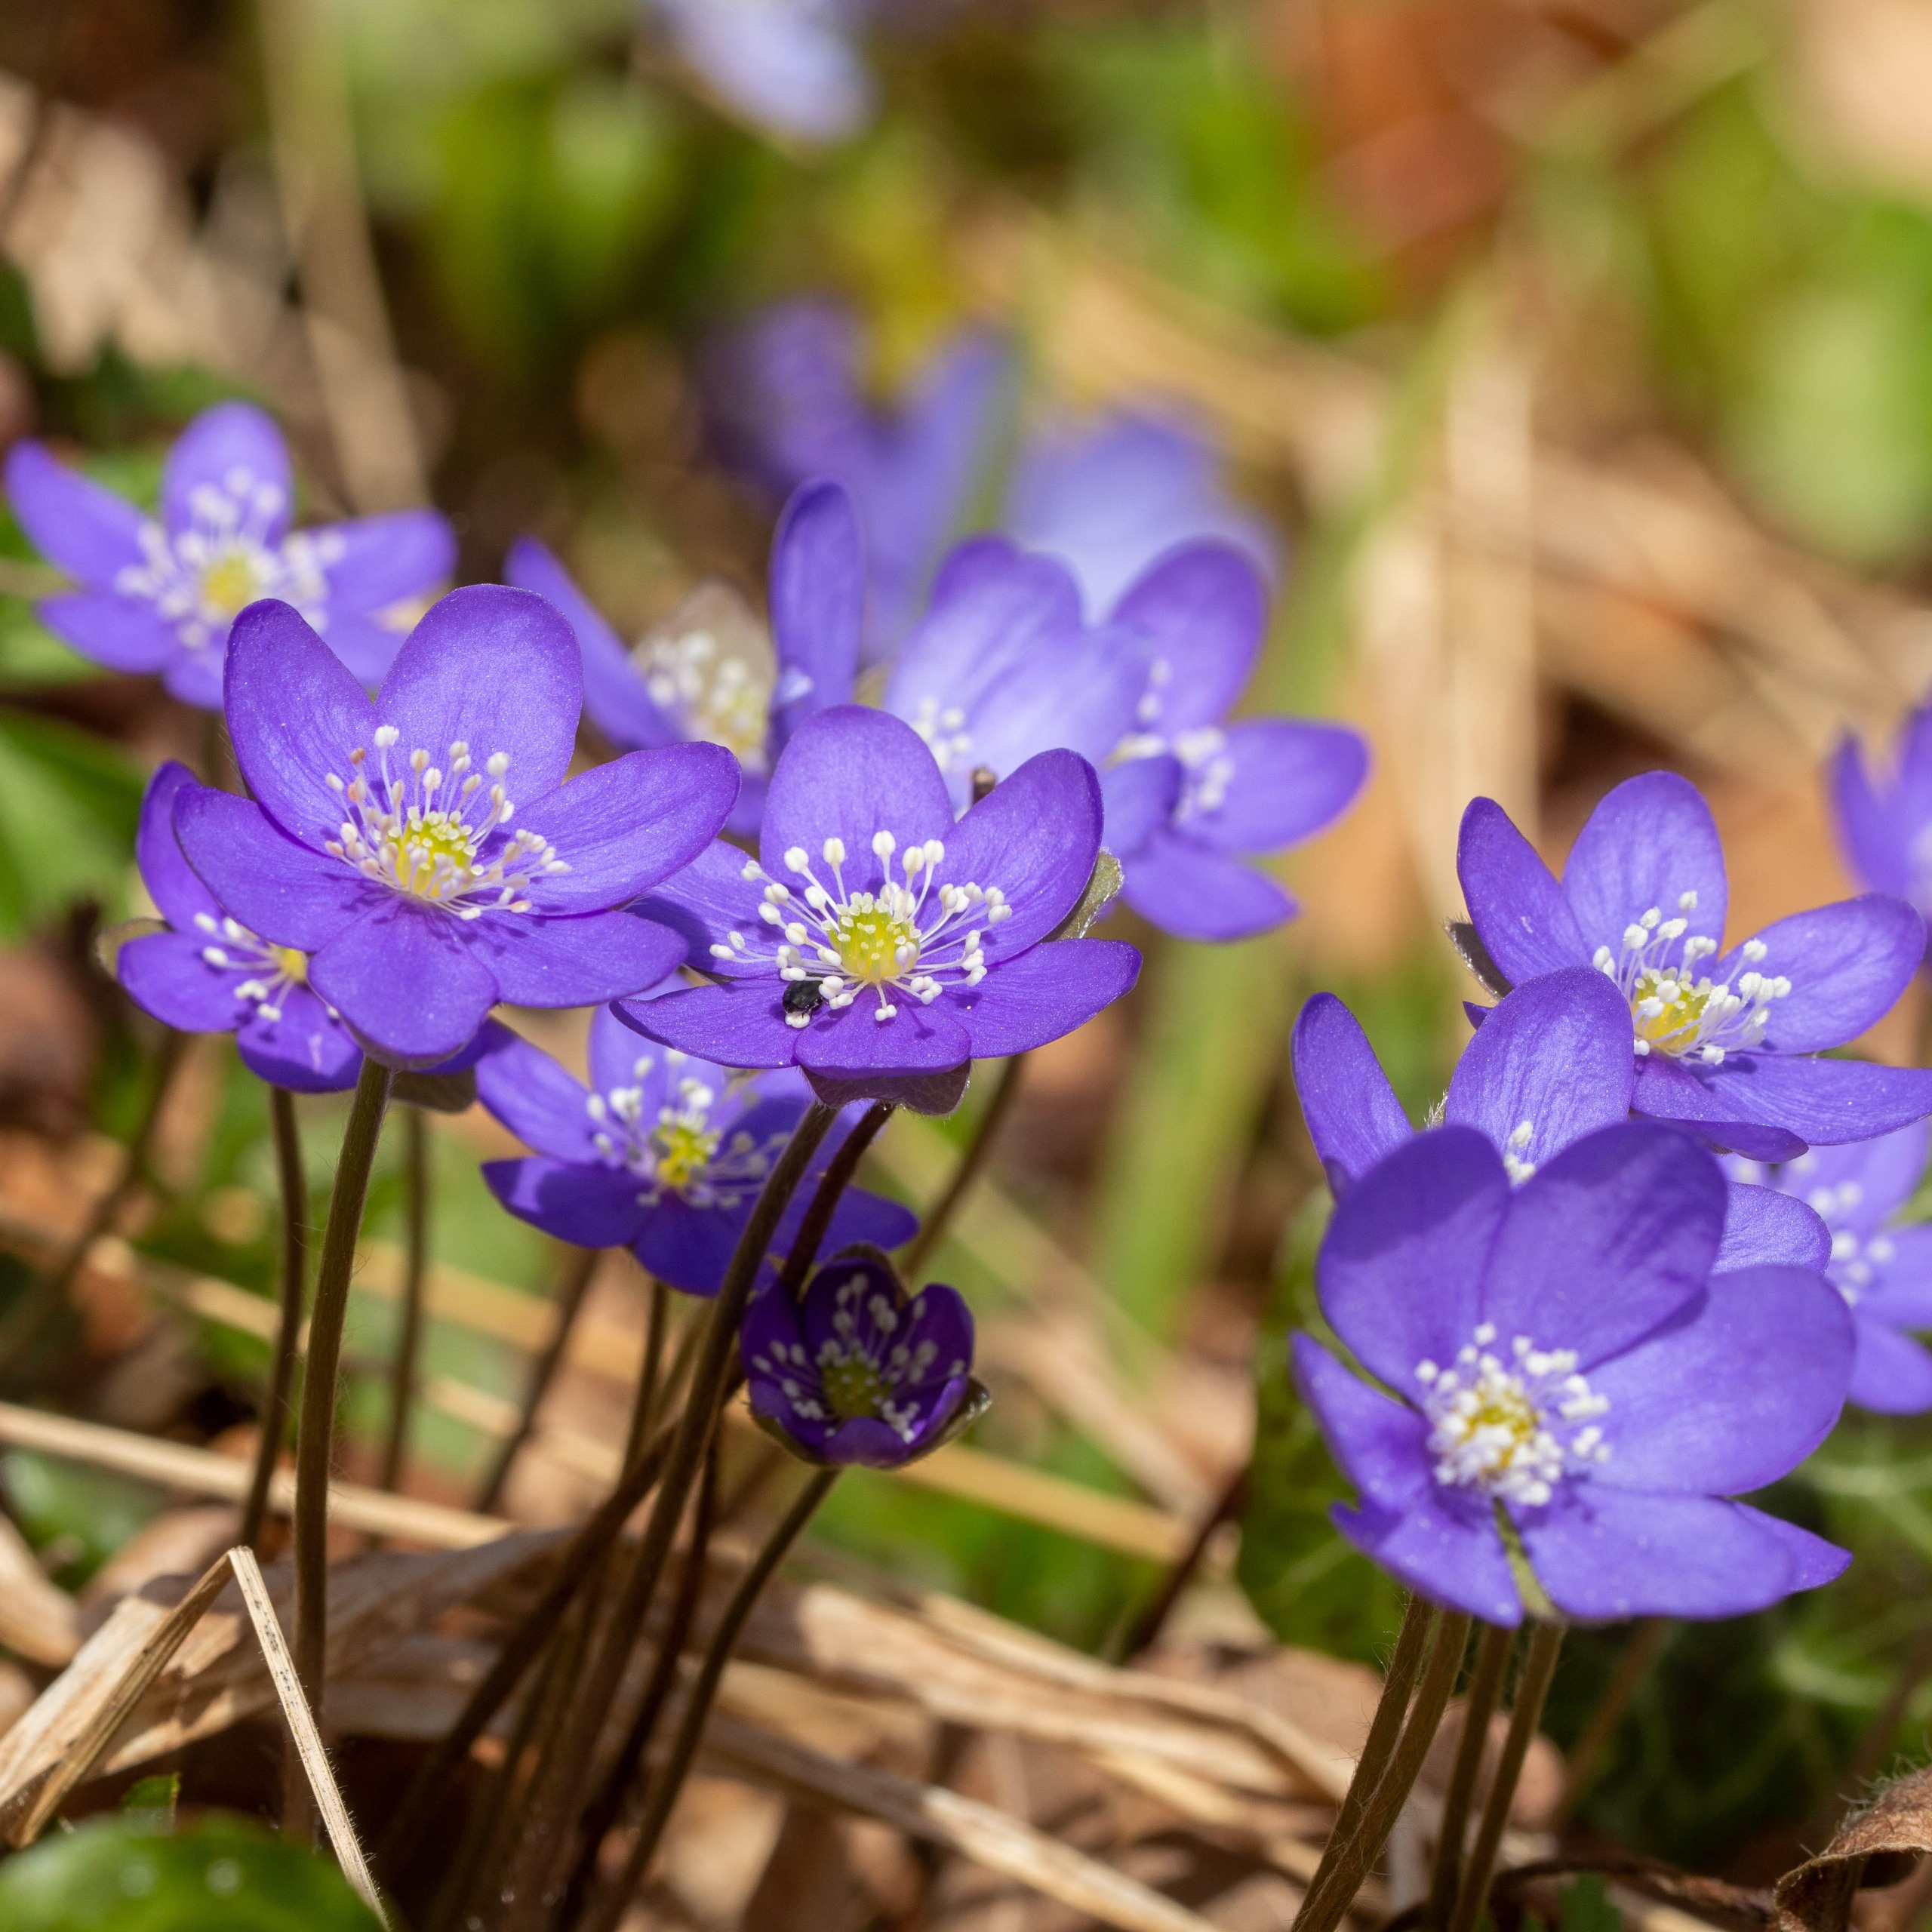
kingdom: Plantae
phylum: Tracheophyta
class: Magnoliopsida
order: Ranunculales
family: Ranunculaceae
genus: Hepatica
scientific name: Hepatica nobilis
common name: Blå anemone
